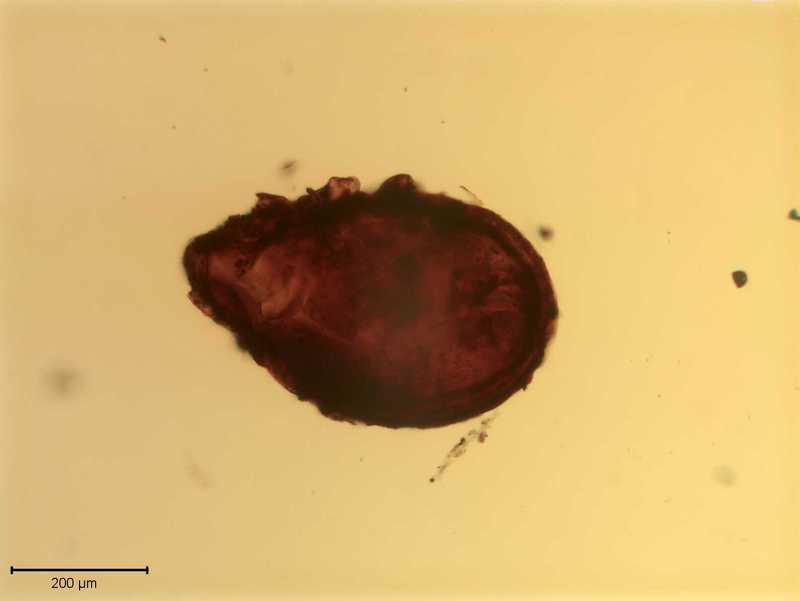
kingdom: Animalia
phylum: Arthropoda
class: Arachnida
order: Sarcoptiformes
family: Scutoverticidae
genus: Scutovertex
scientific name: Scutovertex minutus
